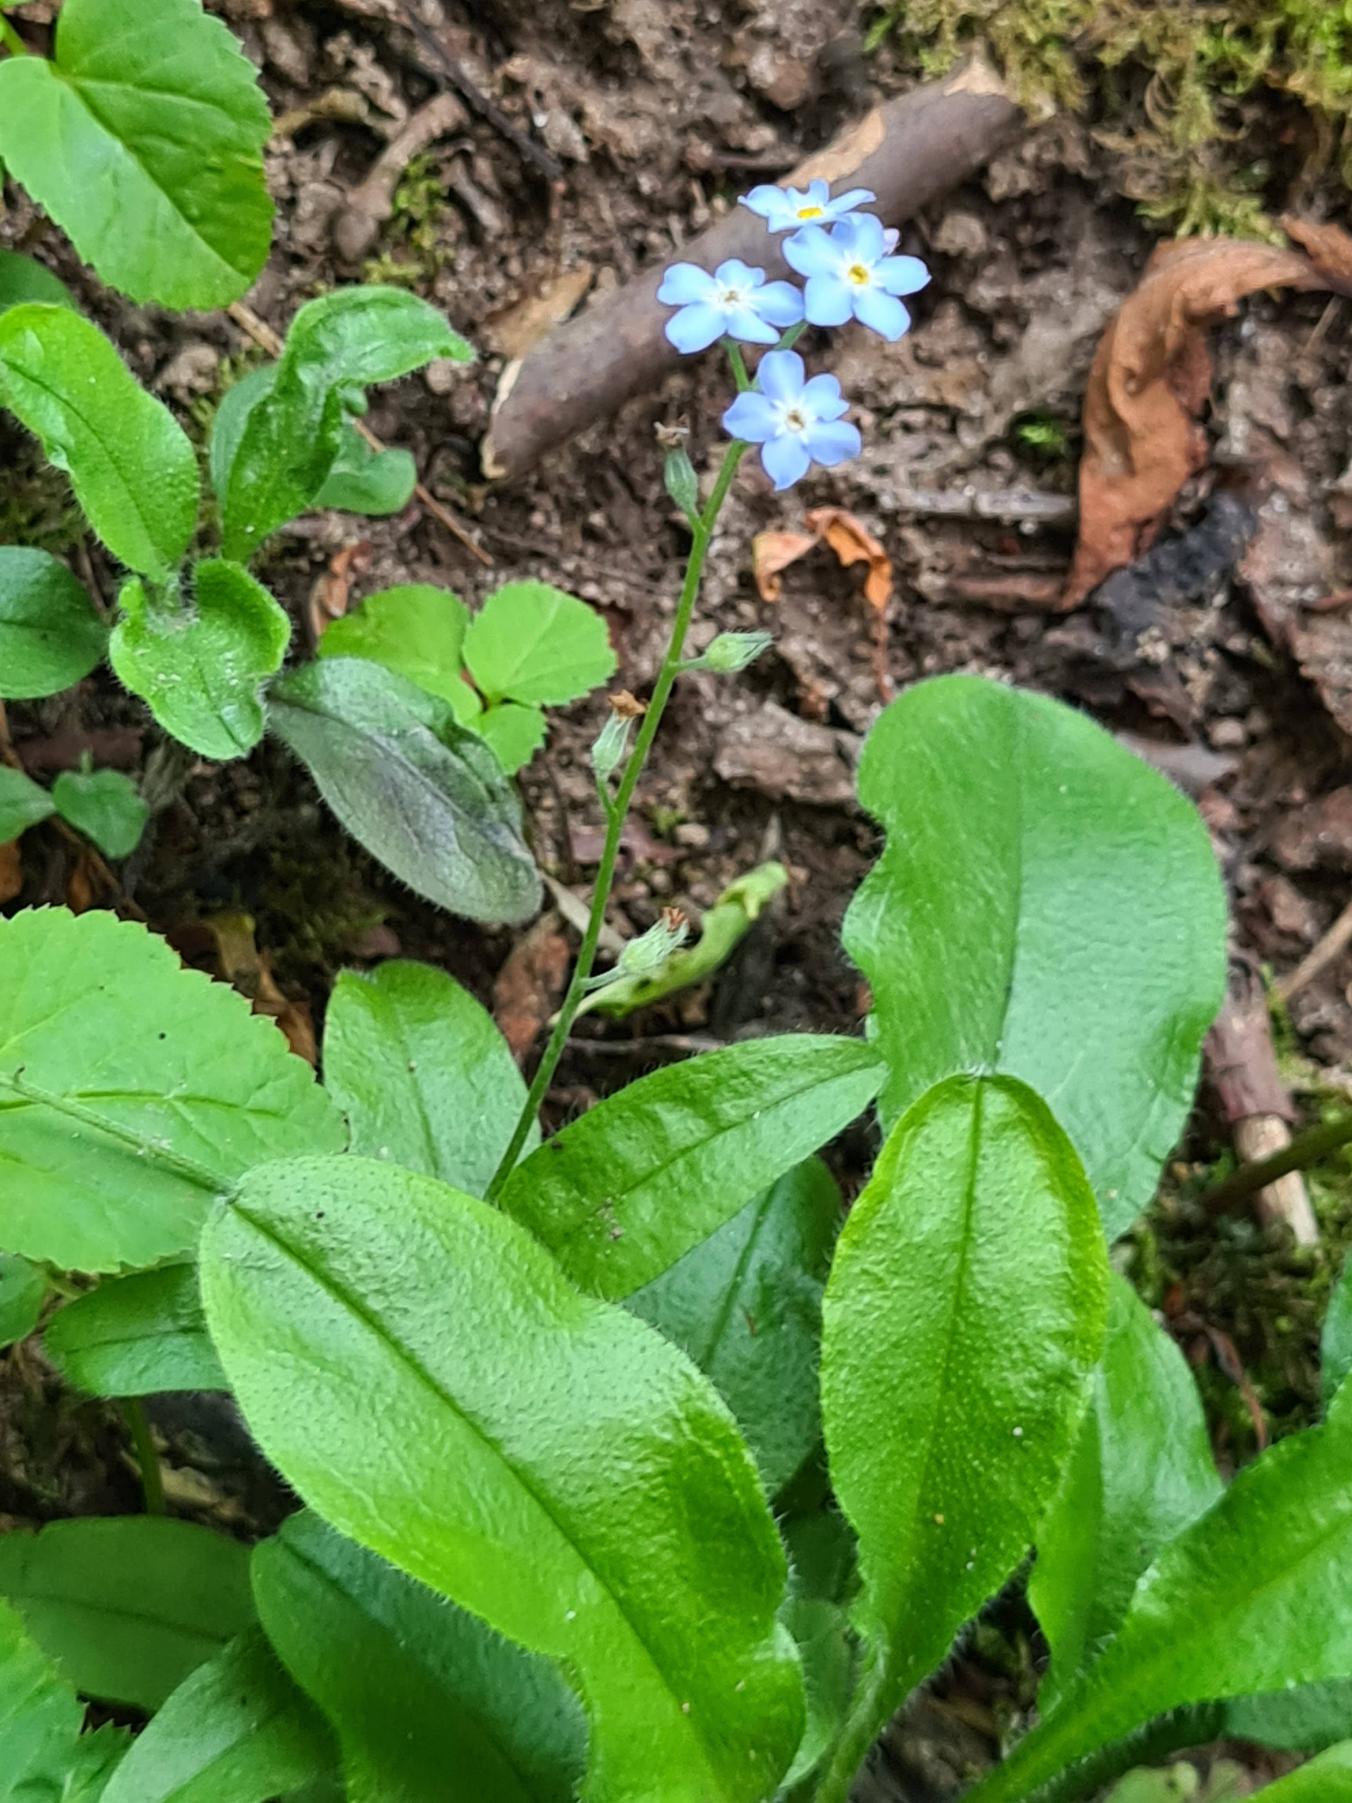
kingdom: Plantae
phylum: Tracheophyta
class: Magnoliopsida
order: Boraginales
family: Boraginaceae
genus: Myosotis
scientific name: Myosotis sylvatica
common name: Skov-forglemmigej
